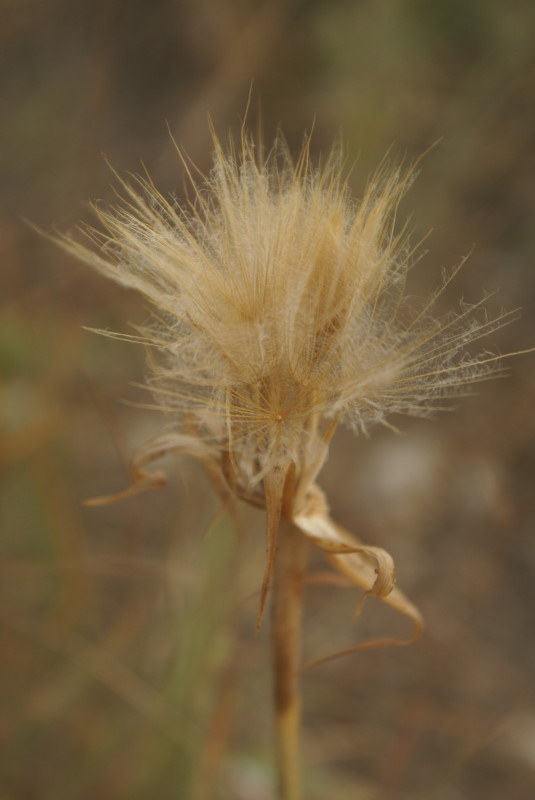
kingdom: Plantae
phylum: Tracheophyta
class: Magnoliopsida
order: Asterales
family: Asteraceae
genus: Scorzonera
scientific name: Scorzonera
